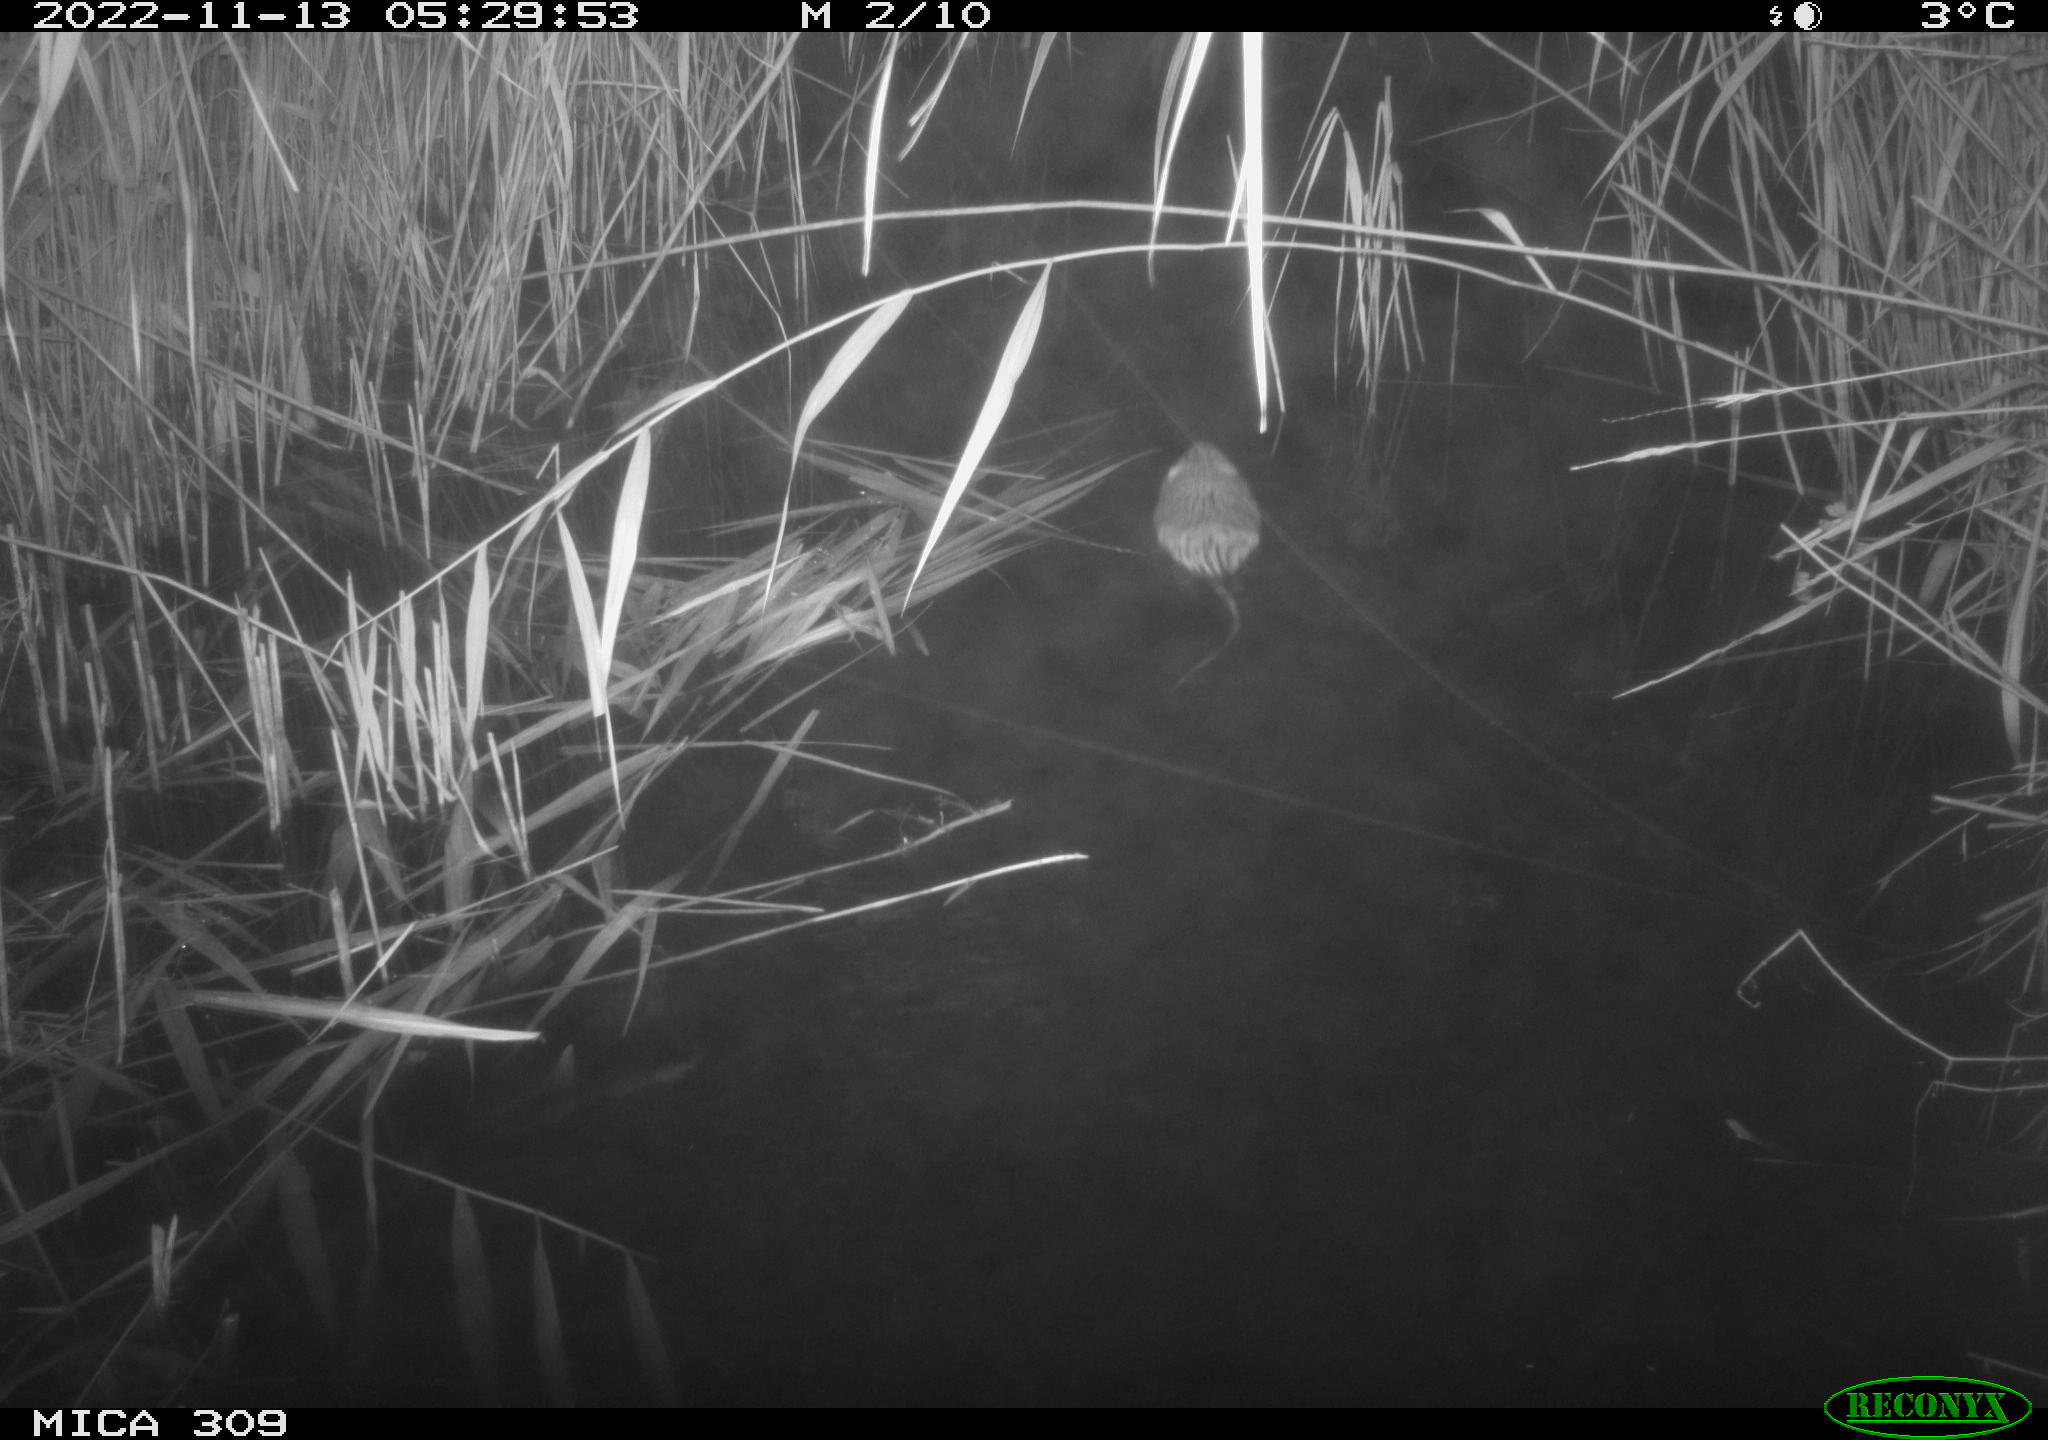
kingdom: Animalia
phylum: Chordata
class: Mammalia
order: Rodentia
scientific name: Rodentia
